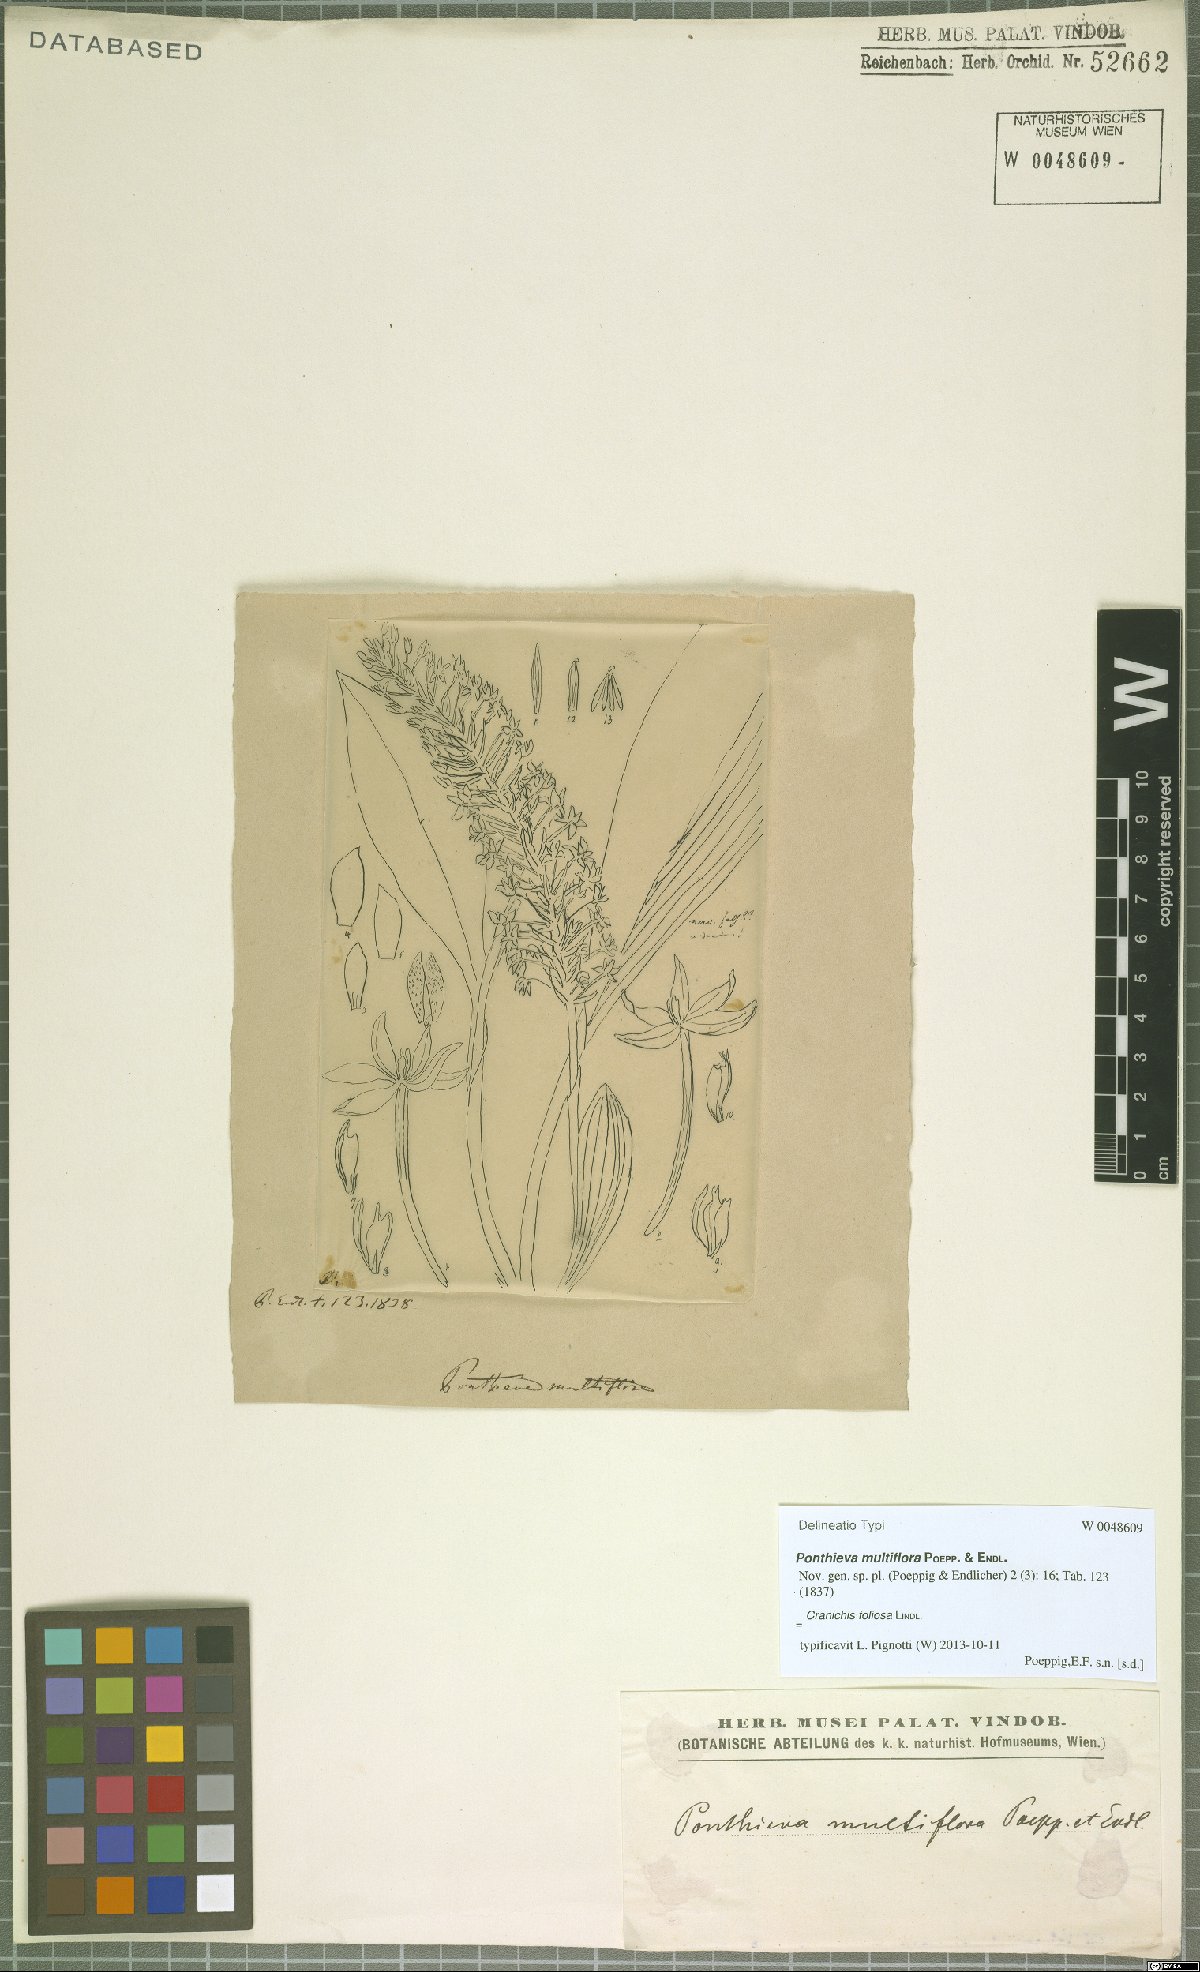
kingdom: Plantae
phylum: Tracheophyta
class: Liliopsida
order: Asparagales
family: Orchidaceae
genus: Cranichis
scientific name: Cranichis foliosa
